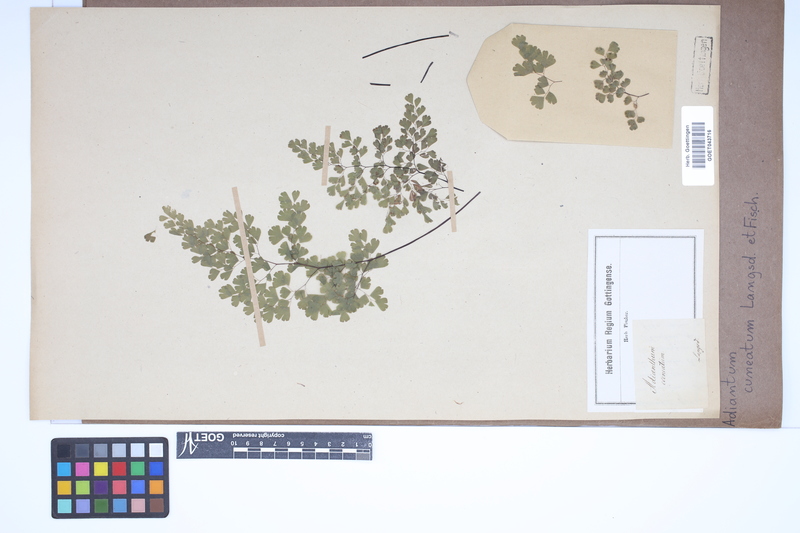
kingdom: Plantae
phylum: Tracheophyta
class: Polypodiopsida
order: Polypodiales
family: Pteridaceae
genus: Adiantum
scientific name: Adiantum raddianum
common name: Delta maidenhair fern
